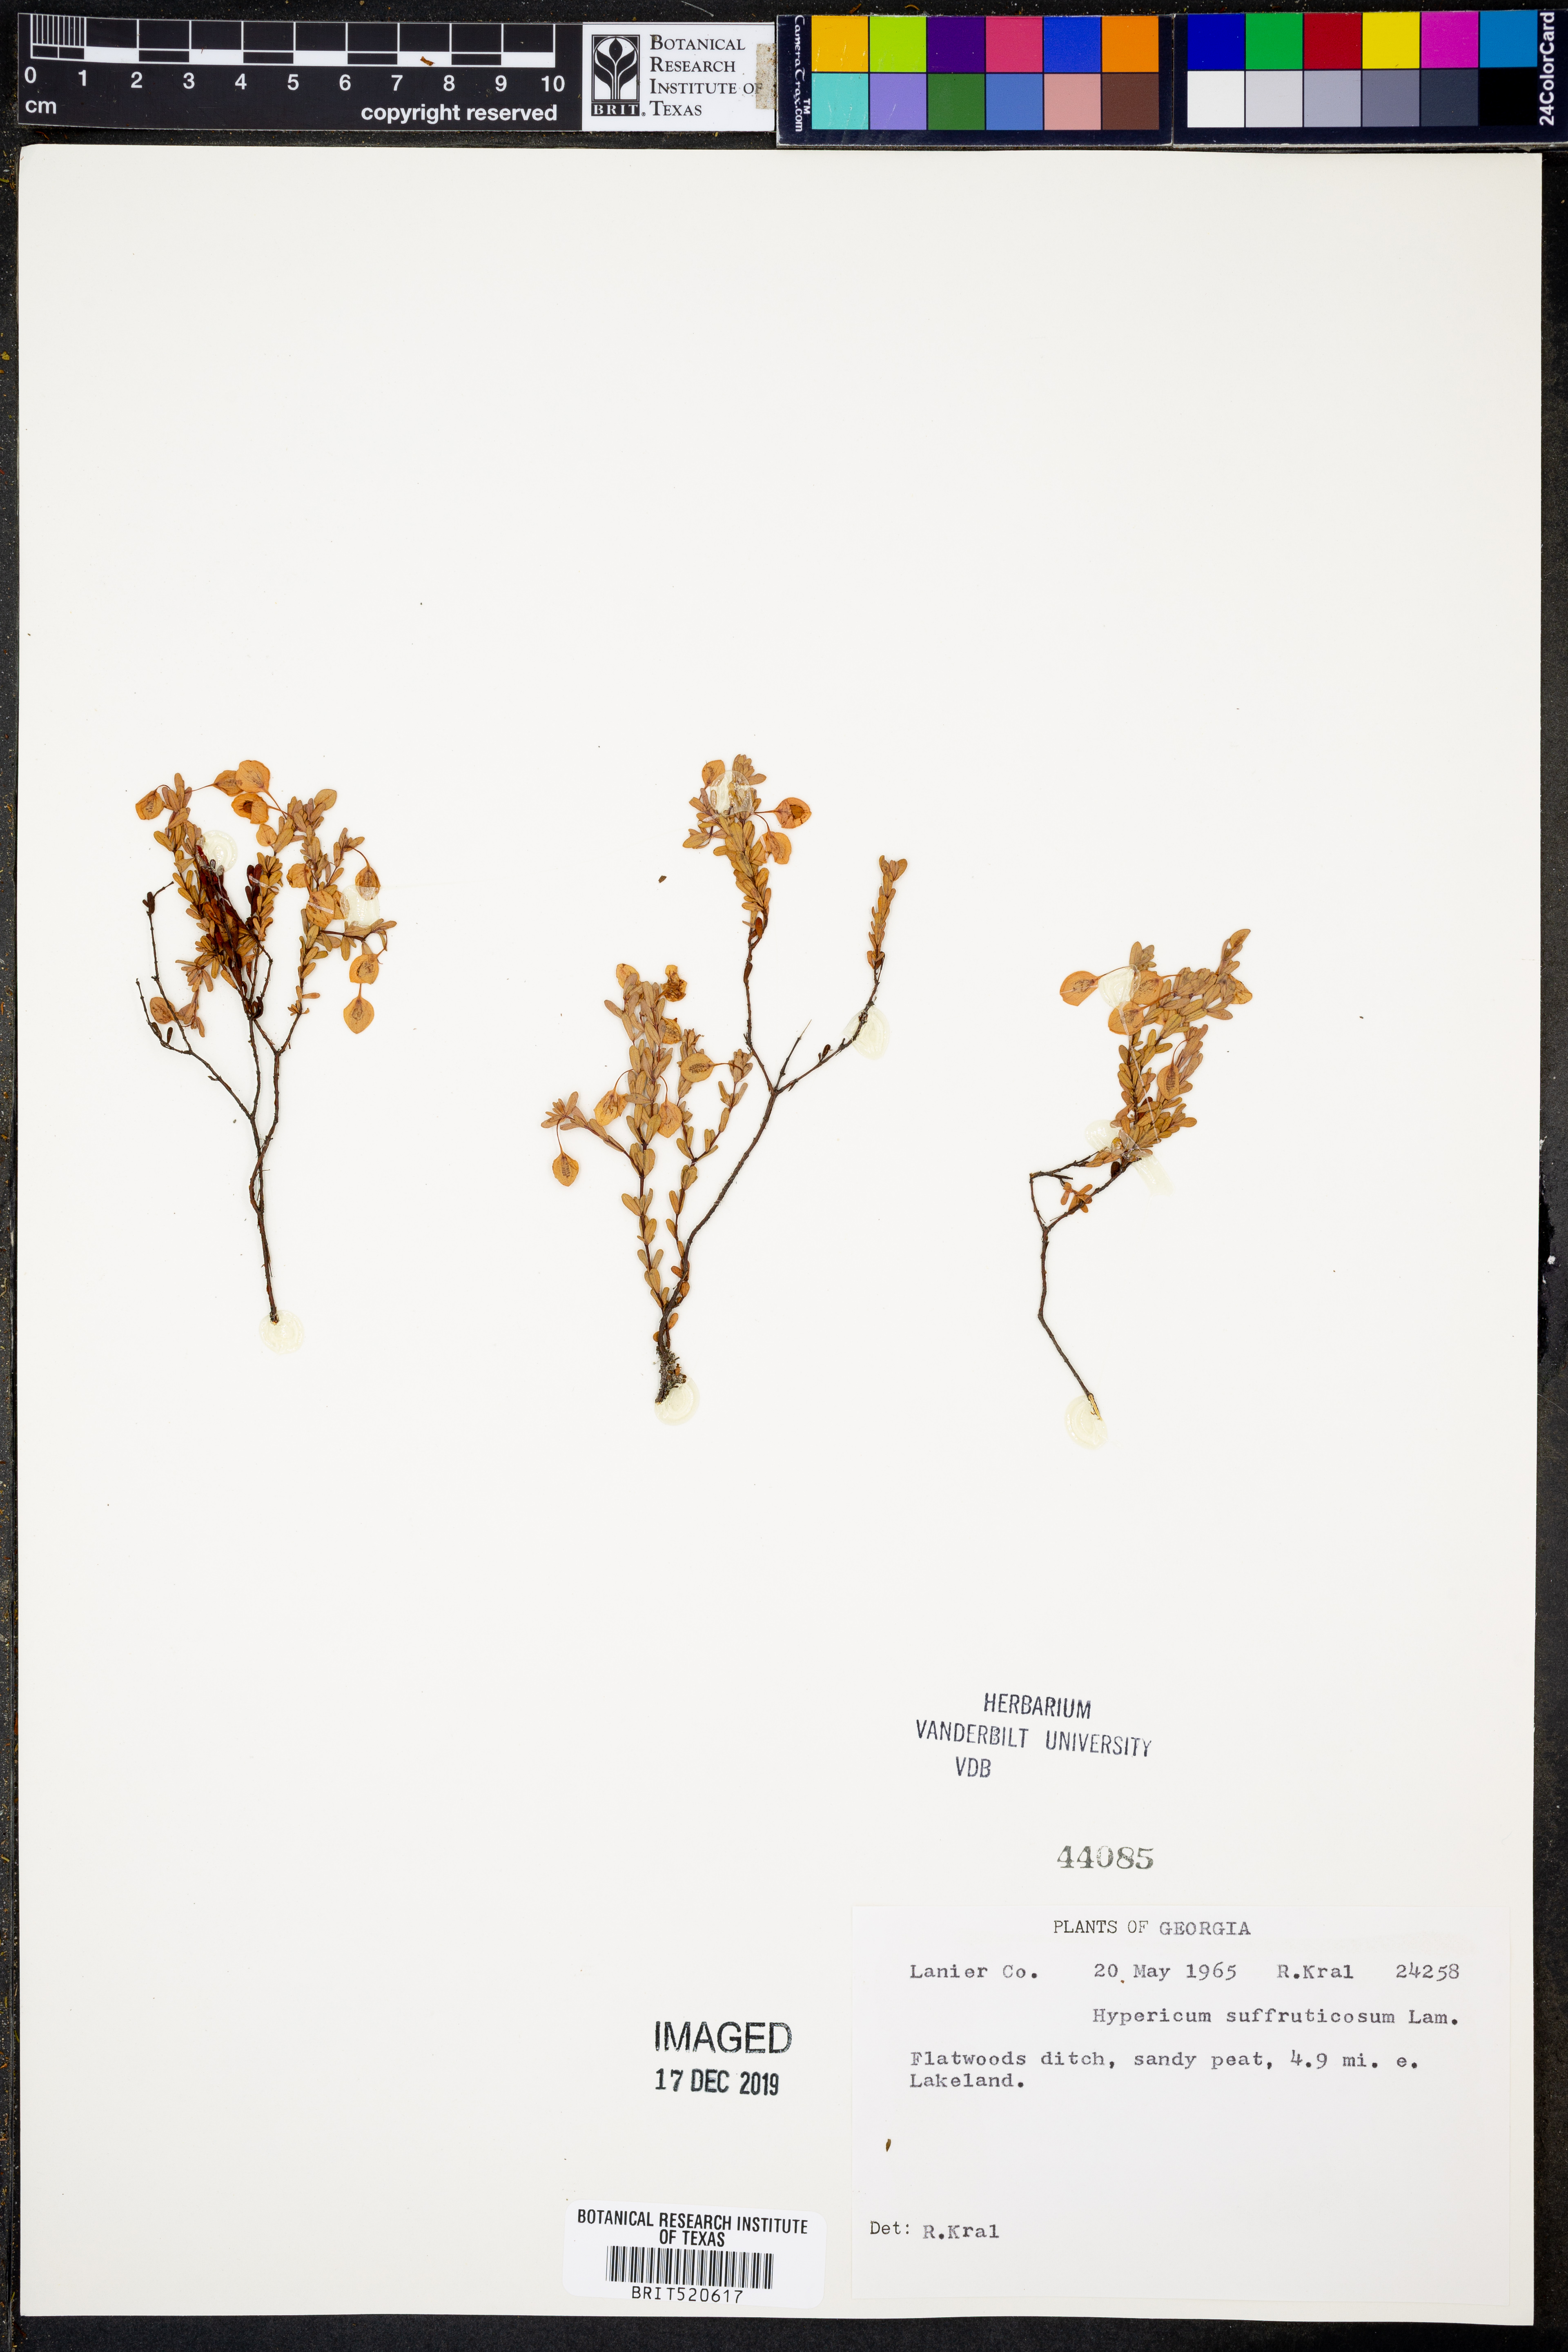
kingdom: Plantae
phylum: Tracheophyta
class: Magnoliopsida
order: Malpighiales
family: Hypericaceae
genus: Hypericum
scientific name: Hypericum suffruticosum
